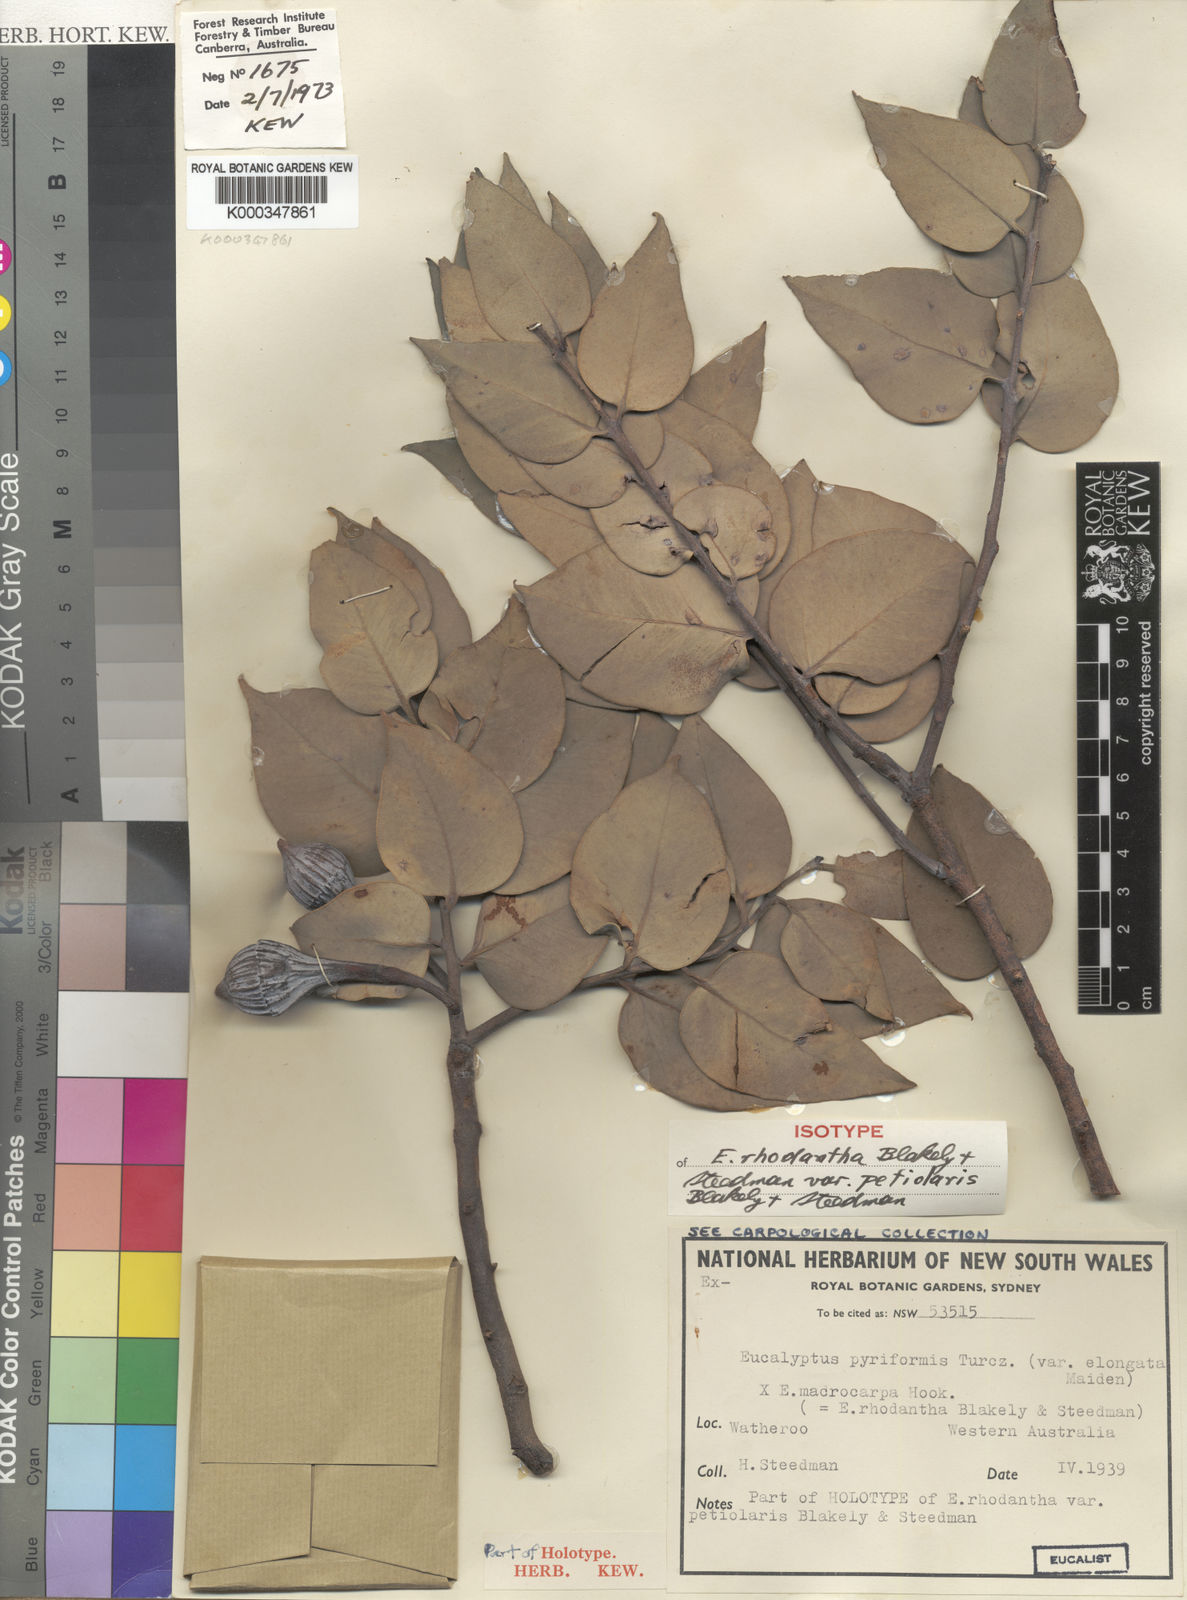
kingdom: Plantae
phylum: Tracheophyta
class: Magnoliopsida
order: Myrtales
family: Myrtaceae
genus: Eucalyptus
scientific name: Eucalyptus rhodantha
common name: Rose mallee
